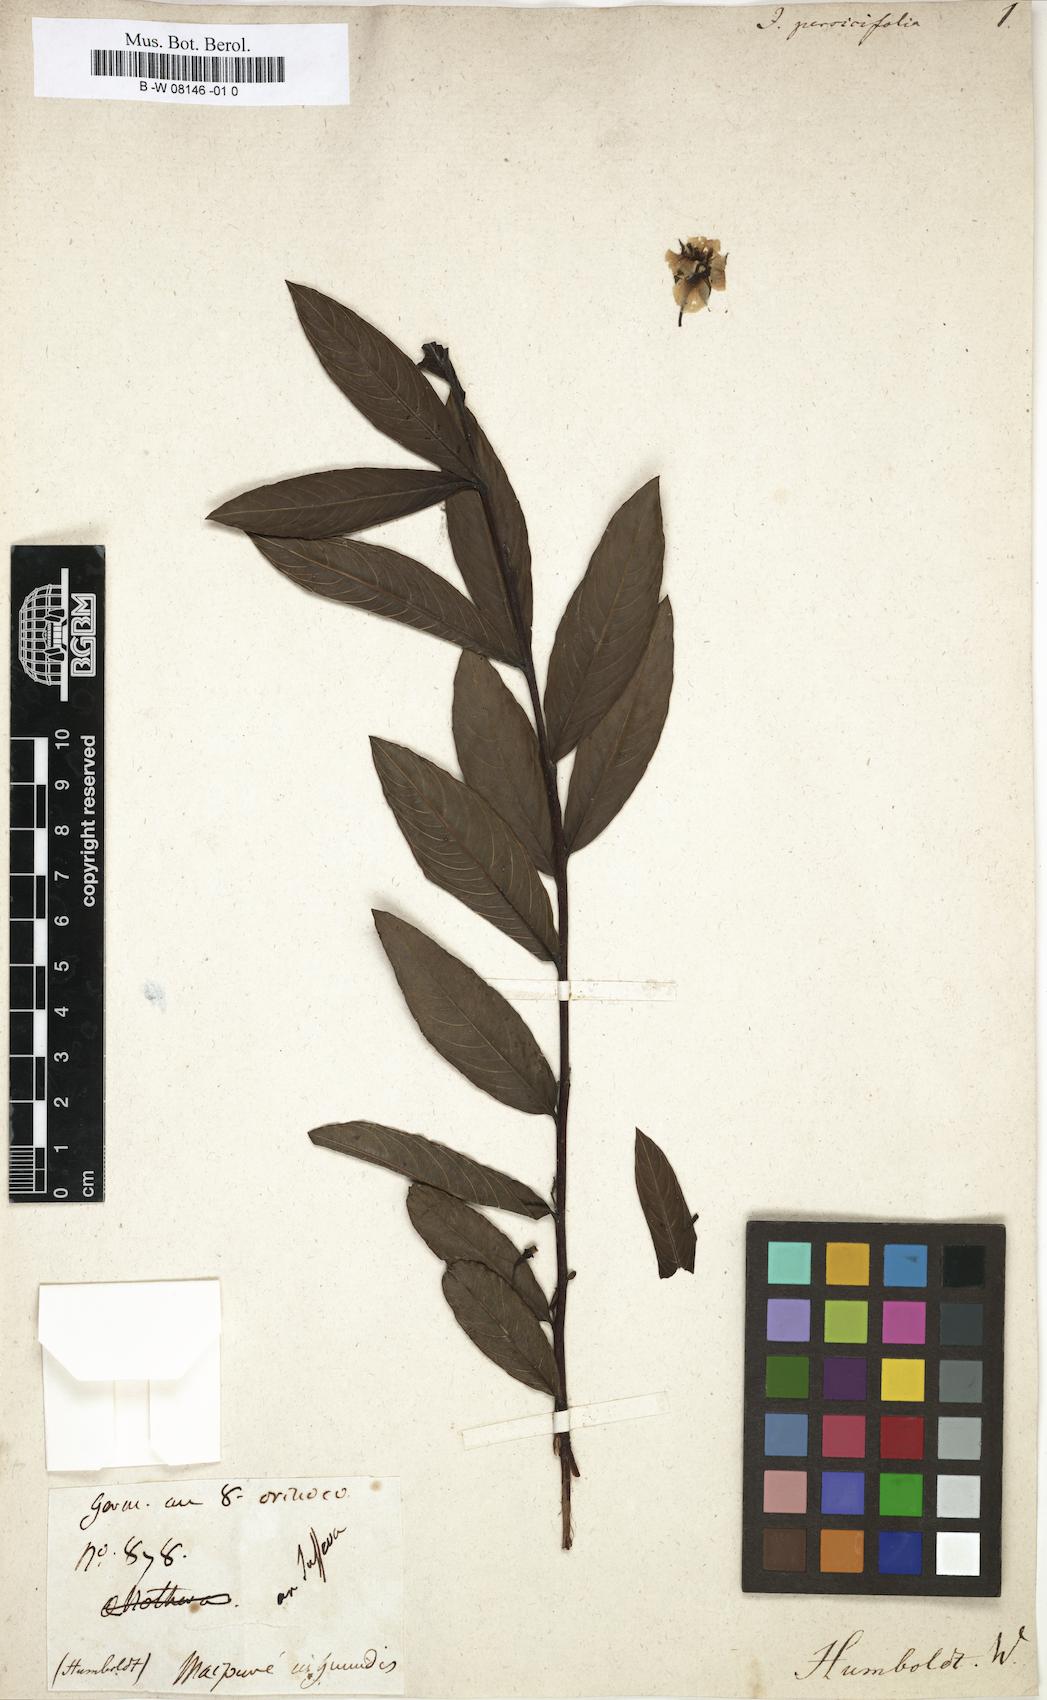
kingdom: Plantae
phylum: Tracheophyta
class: Magnoliopsida
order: Myrtales
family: Onagraceae
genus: Ludwigia
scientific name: Ludwigia octovalvis
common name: Water-primrose
